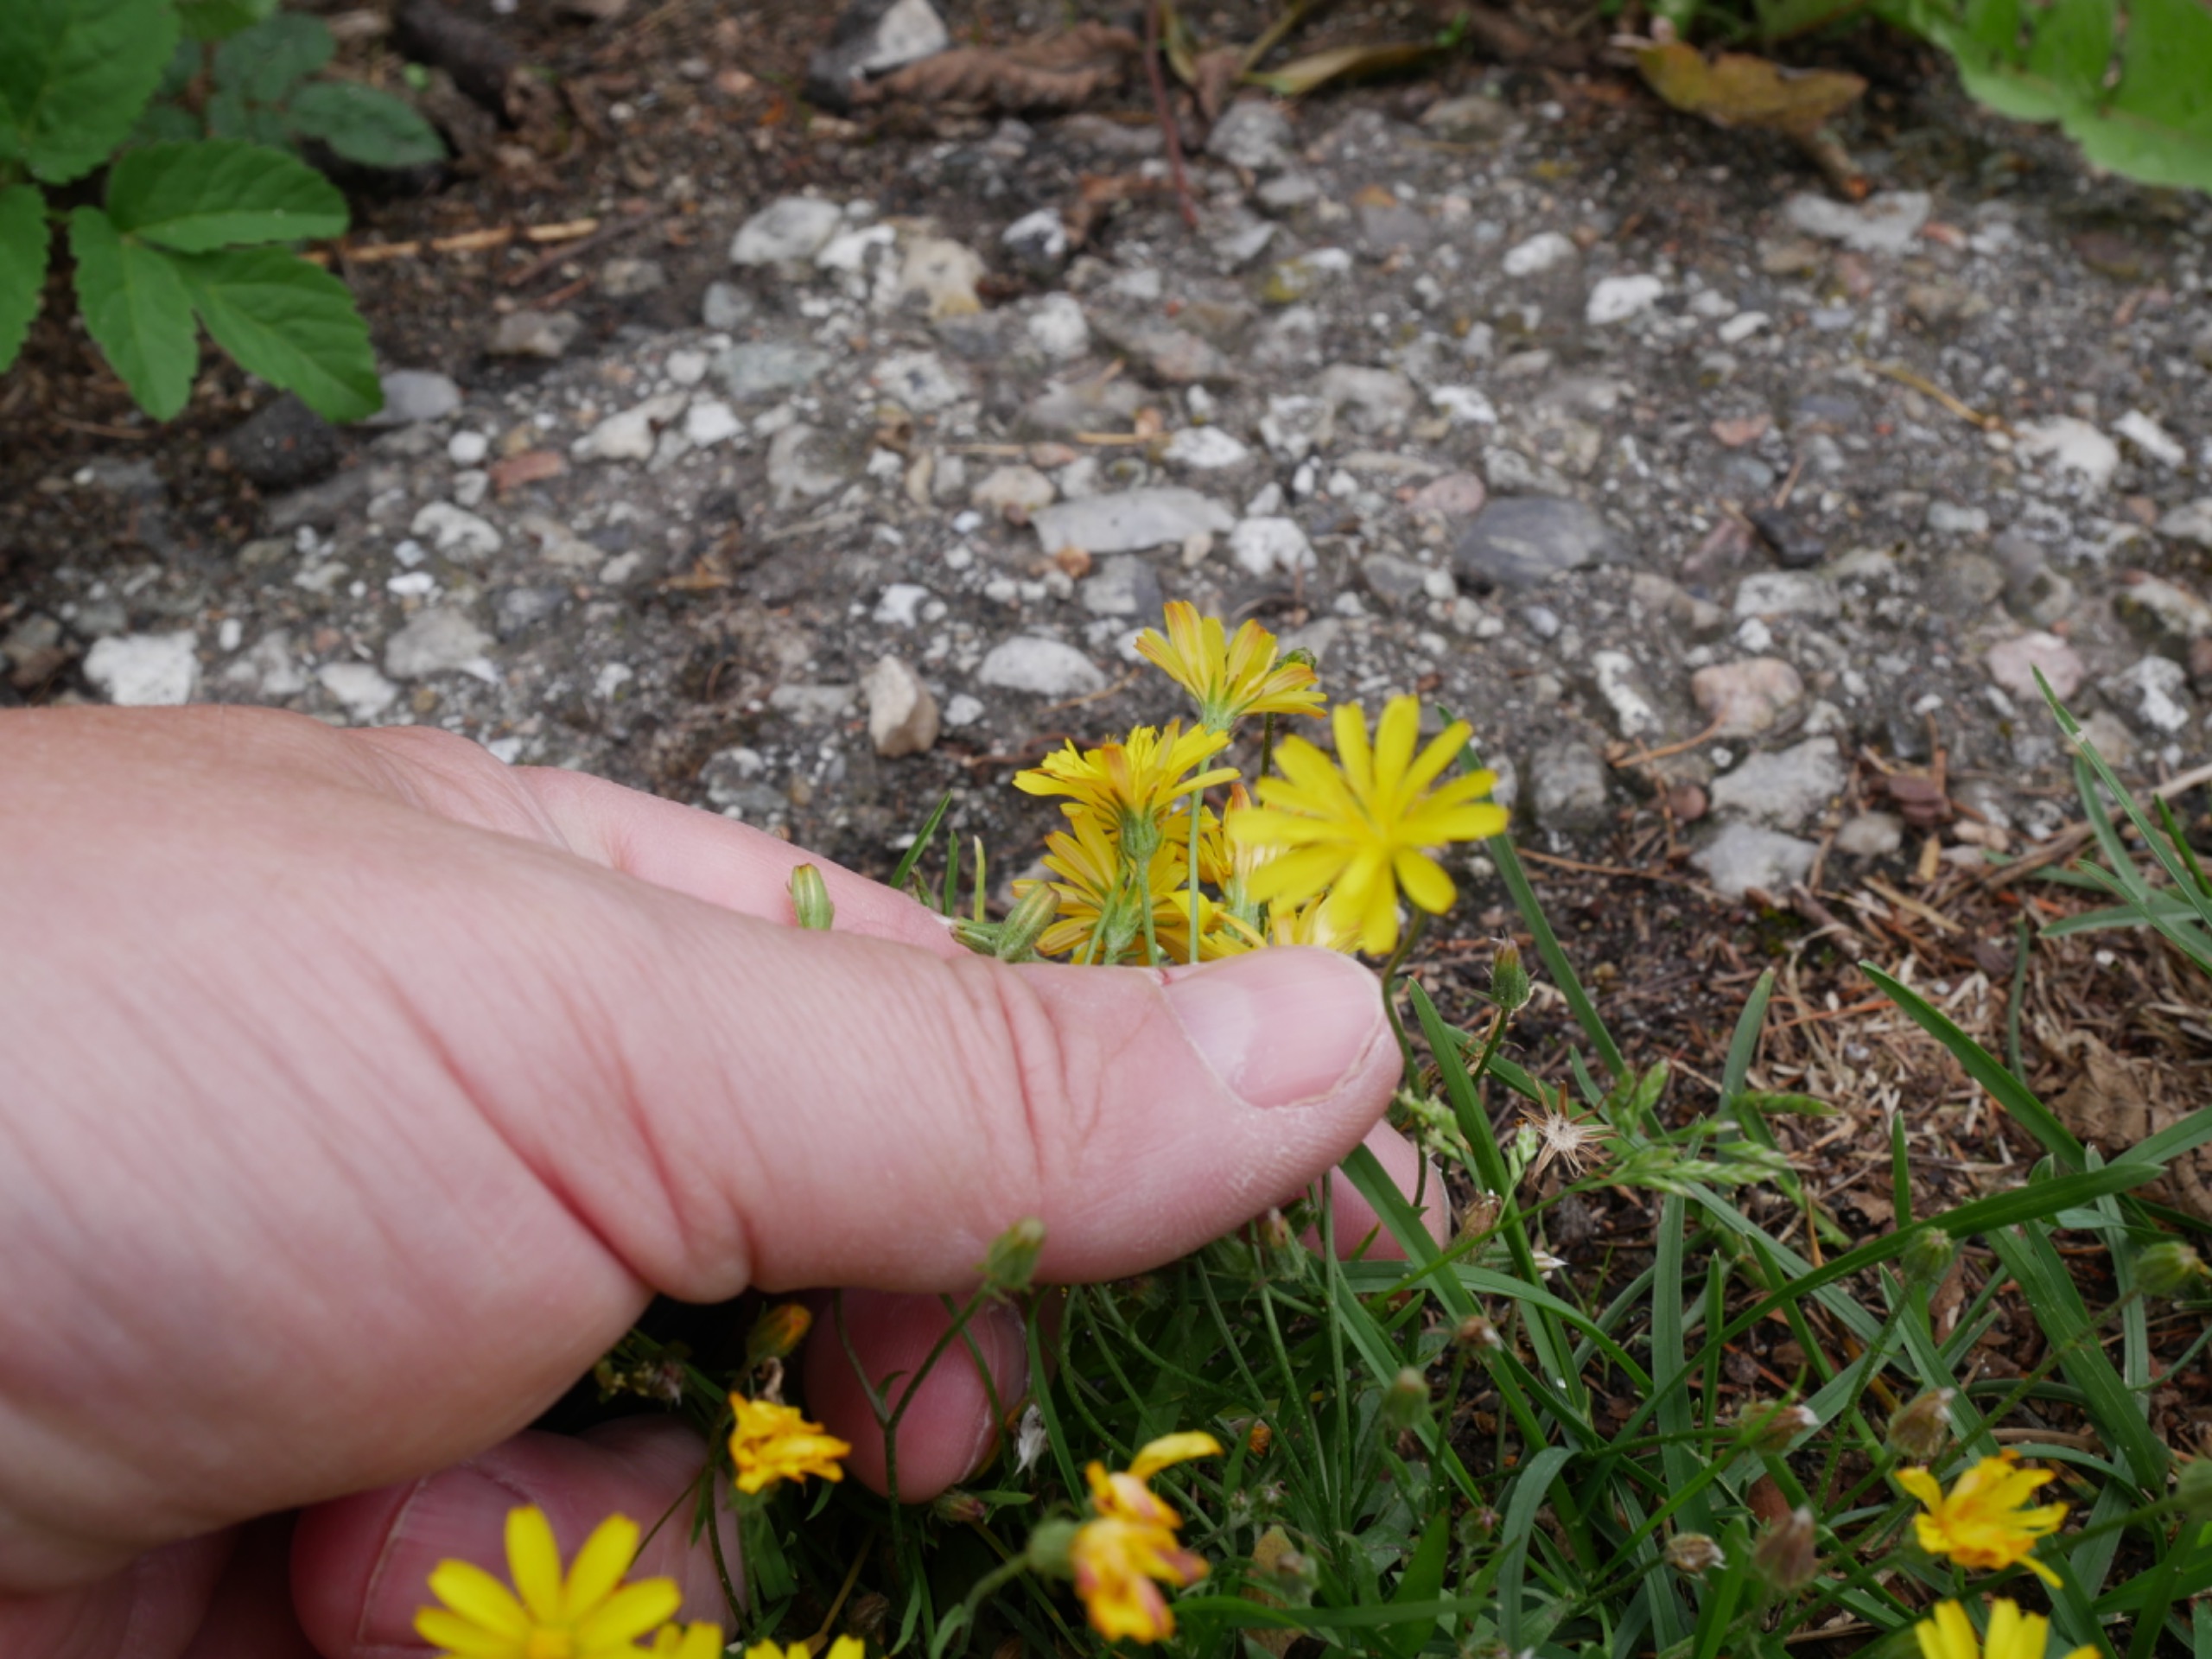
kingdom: Plantae
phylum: Tracheophyta
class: Magnoliopsida
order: Asterales
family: Asteraceae
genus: Crepis
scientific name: Crepis capillaris
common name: Grøn høgeskæg
